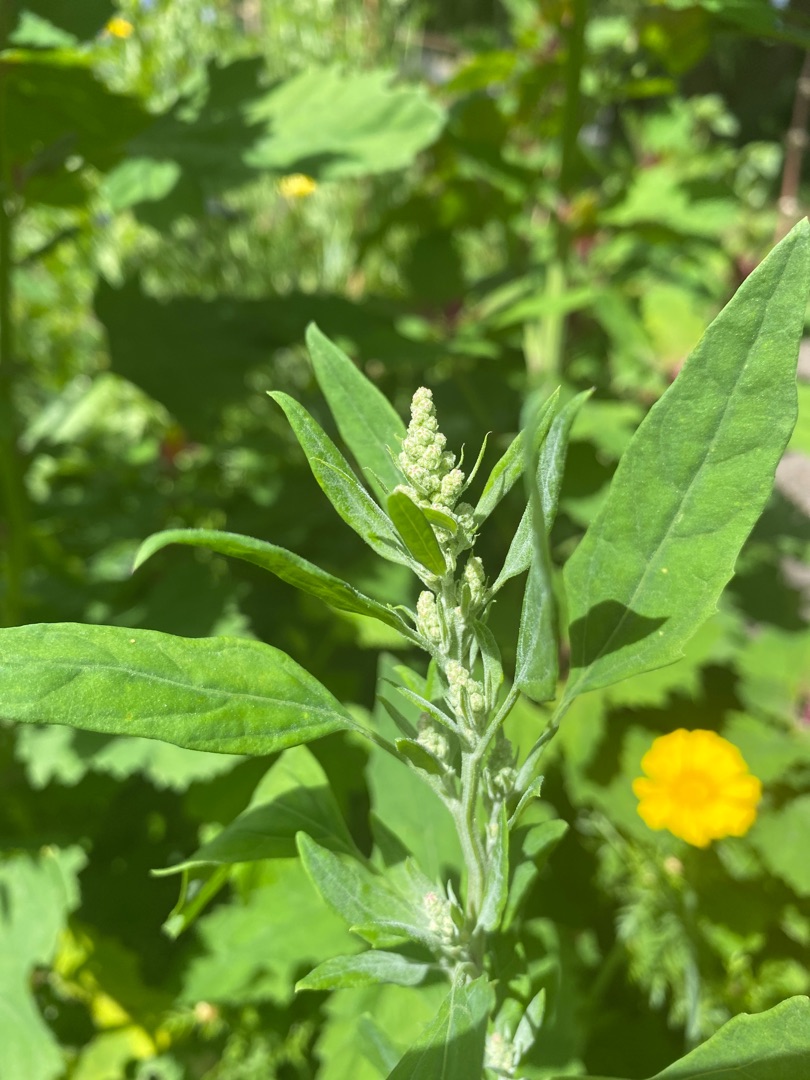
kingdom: Plantae
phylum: Tracheophyta
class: Magnoliopsida
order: Caryophyllales
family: Amaranthaceae
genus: Chenopodium
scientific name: Chenopodium album
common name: Hvidmelet gåsefod
